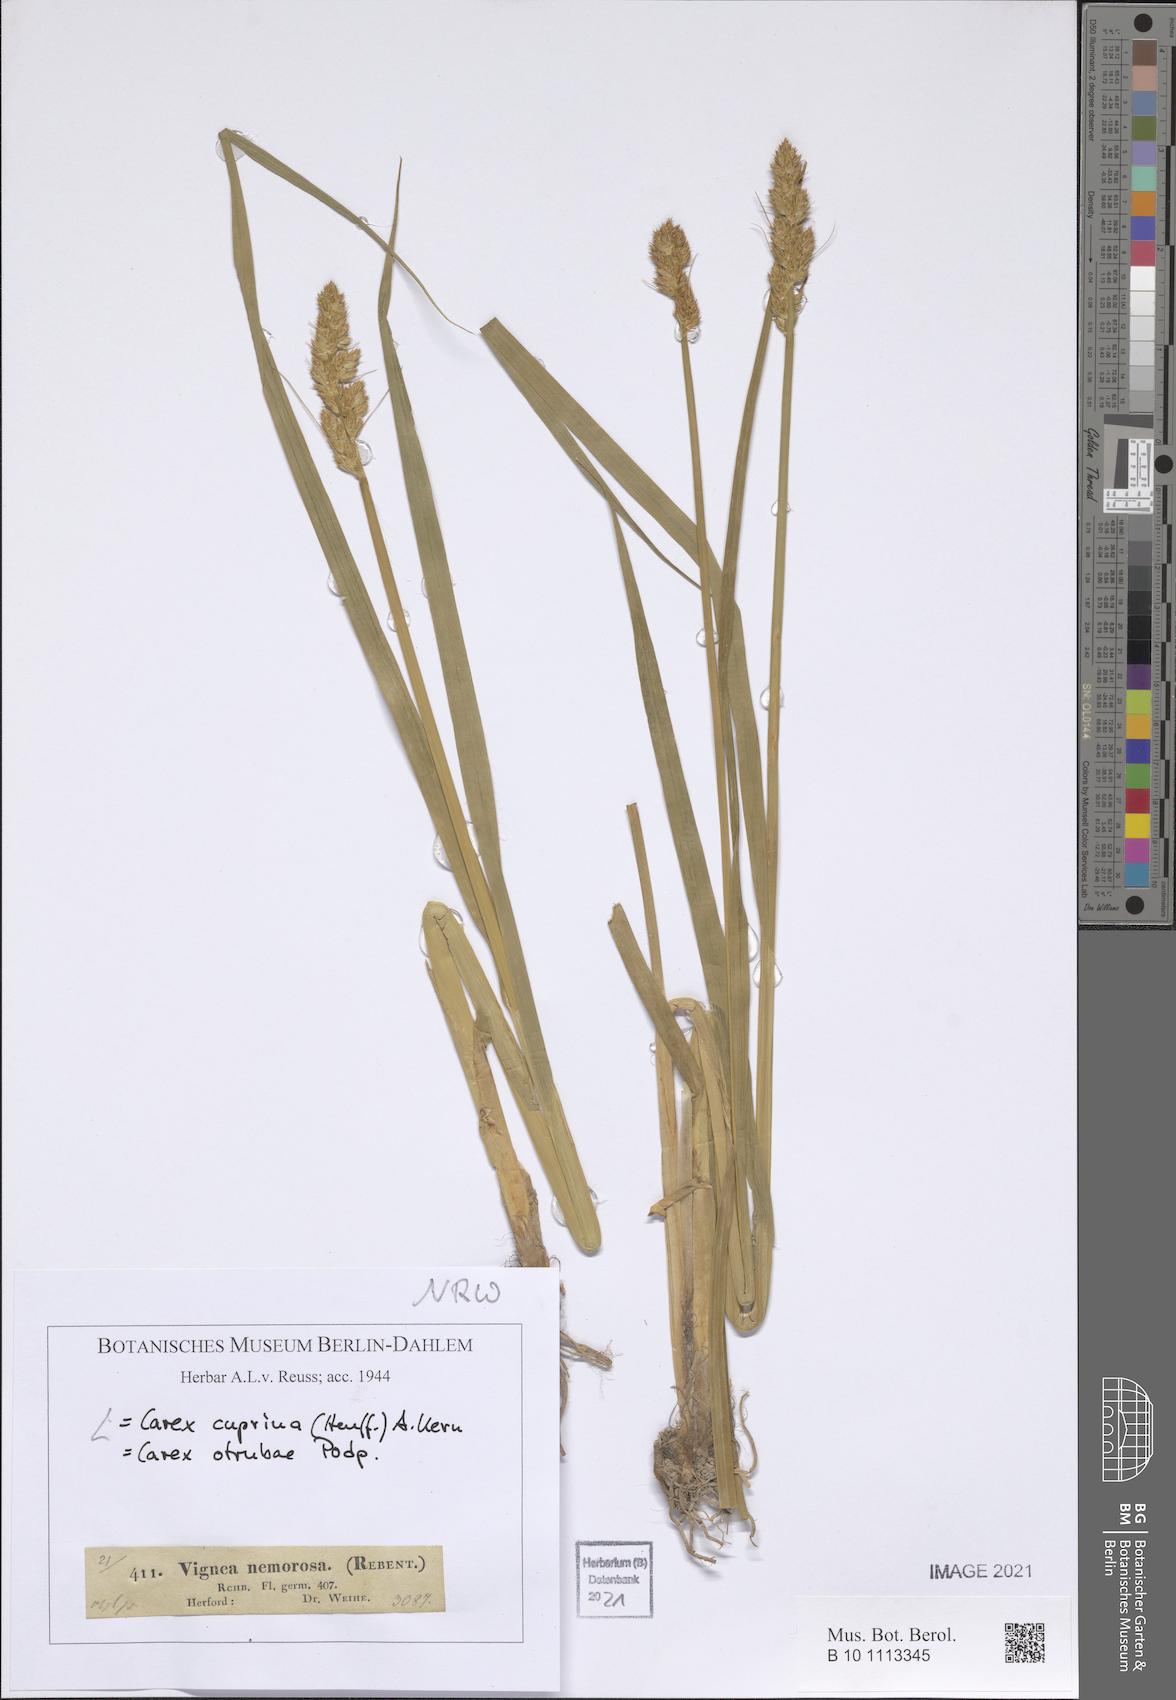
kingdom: Plantae
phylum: Tracheophyta
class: Liliopsida
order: Poales
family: Cyperaceae
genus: Carex
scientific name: Carex leersii
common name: Leers' sedge
